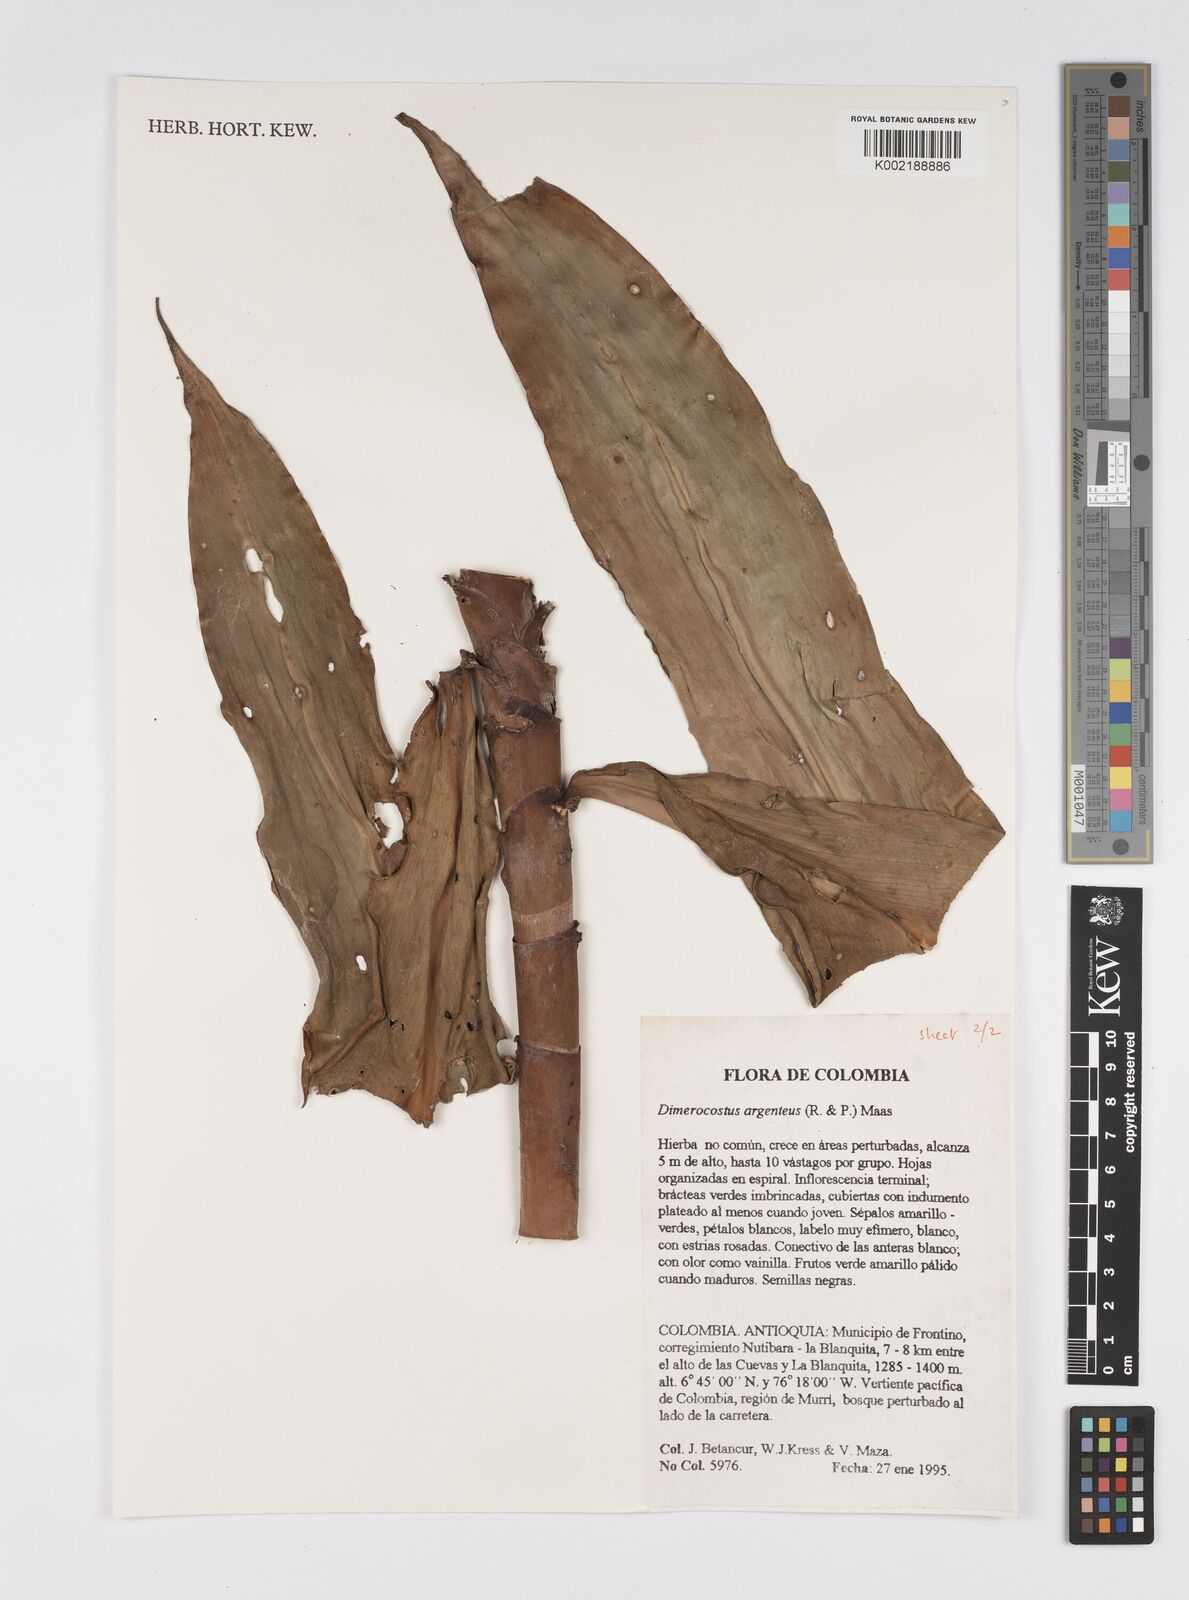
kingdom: Plantae
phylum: Tracheophyta
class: Liliopsida
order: Zingiberales
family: Costaceae
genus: Dimerocostus
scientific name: Dimerocostus argenteus
